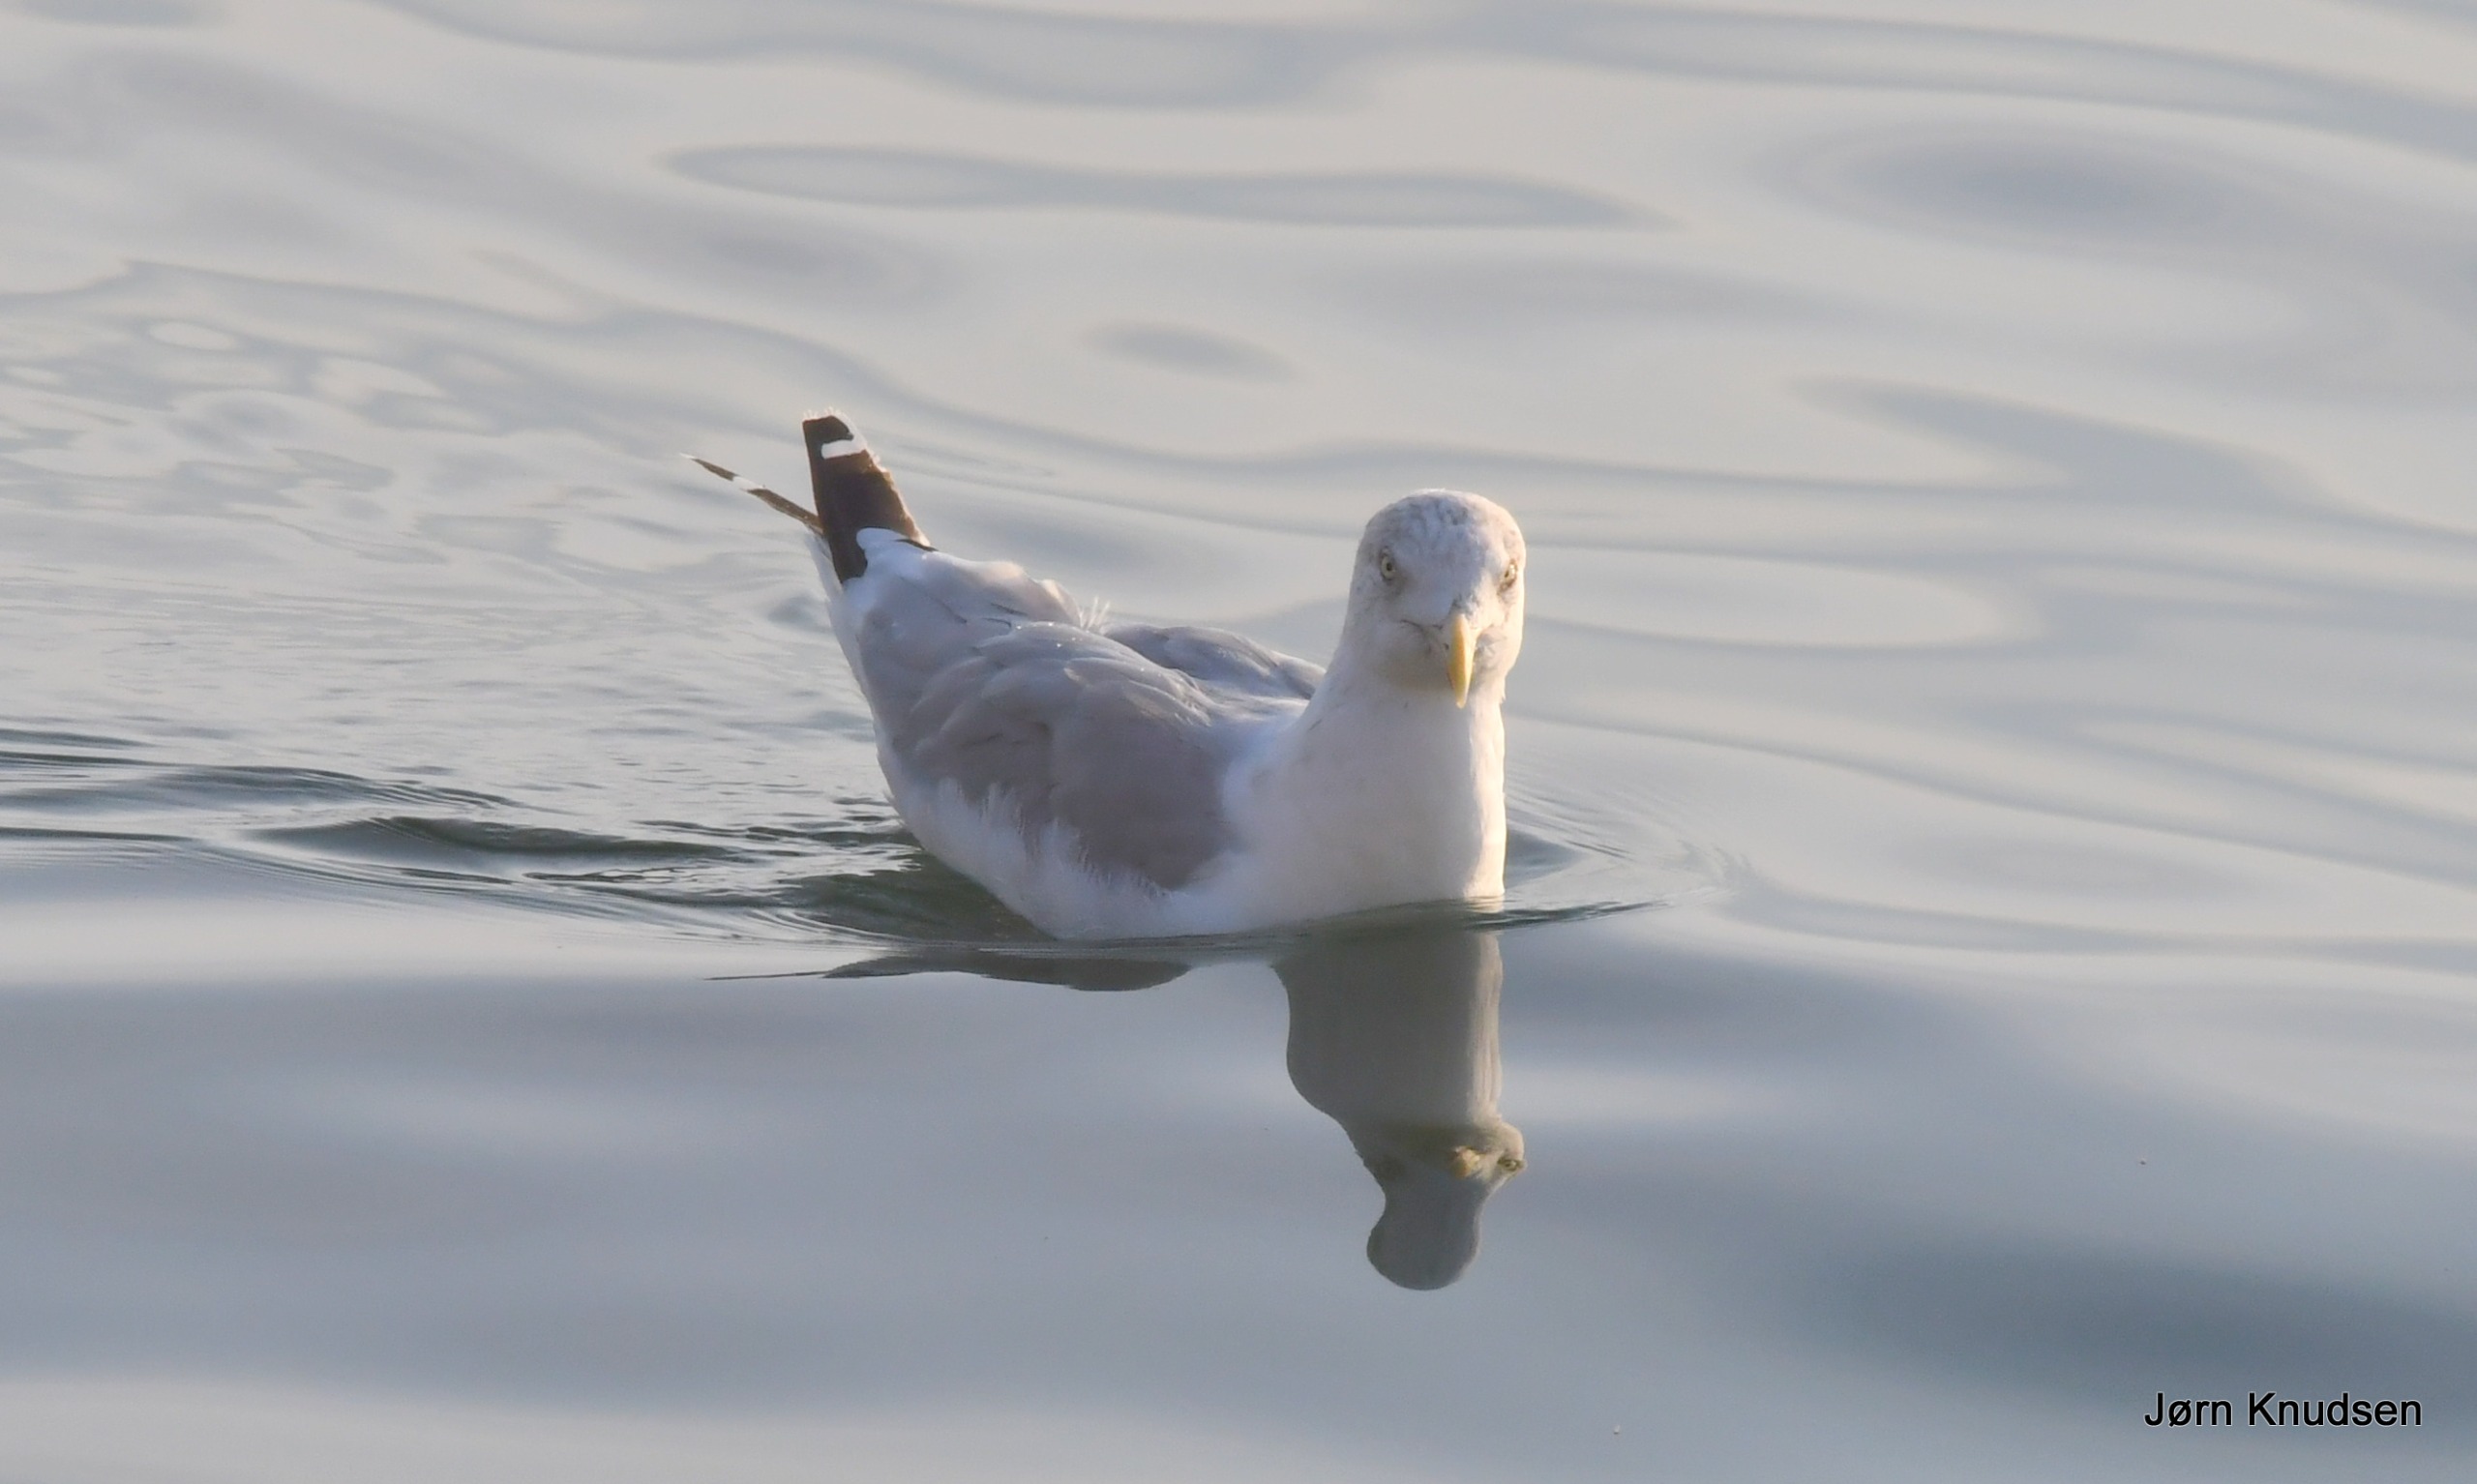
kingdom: Animalia
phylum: Chordata
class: Aves
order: Charadriiformes
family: Laridae
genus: Larus
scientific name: Larus argentatus
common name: Sølvmåge
